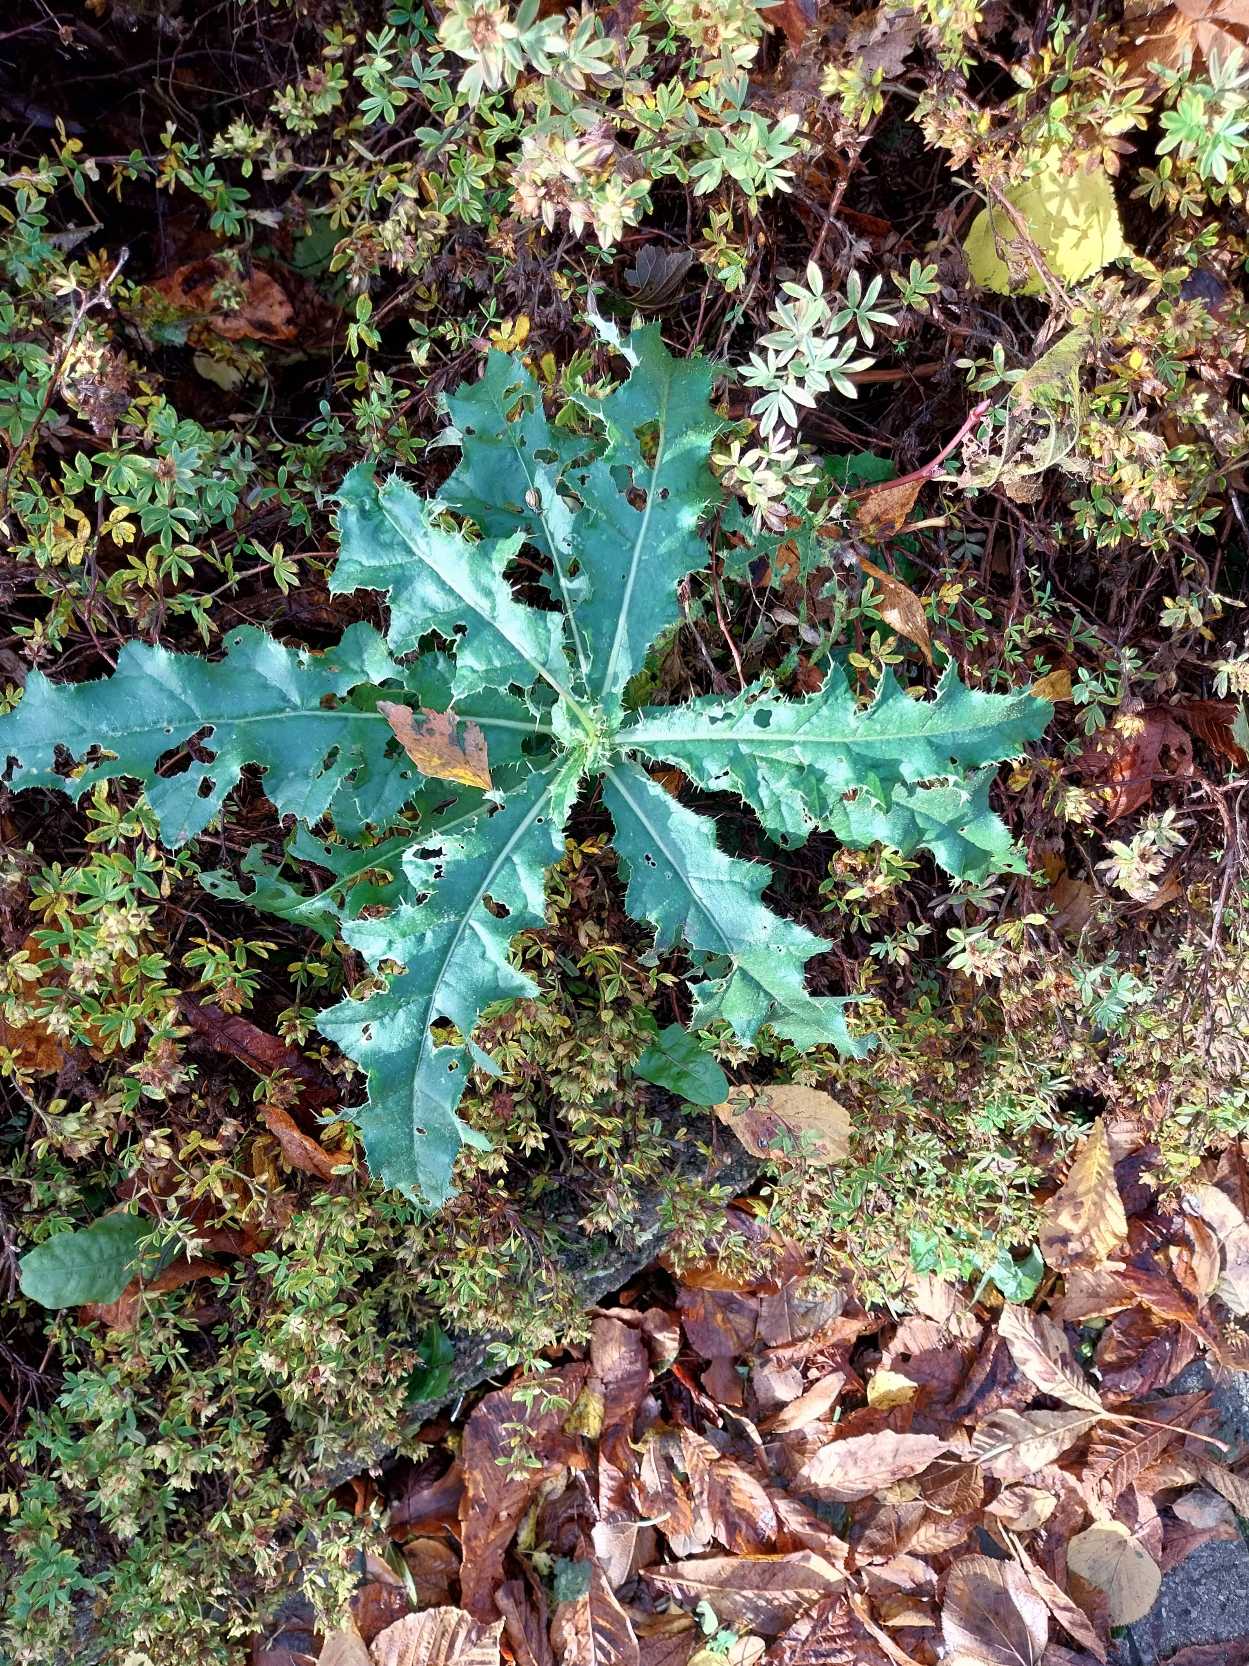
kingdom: Plantae
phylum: Tracheophyta
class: Magnoliopsida
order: Asterales
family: Asteraceae
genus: Cirsium
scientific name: Cirsium arvense
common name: Ager-tidsel
